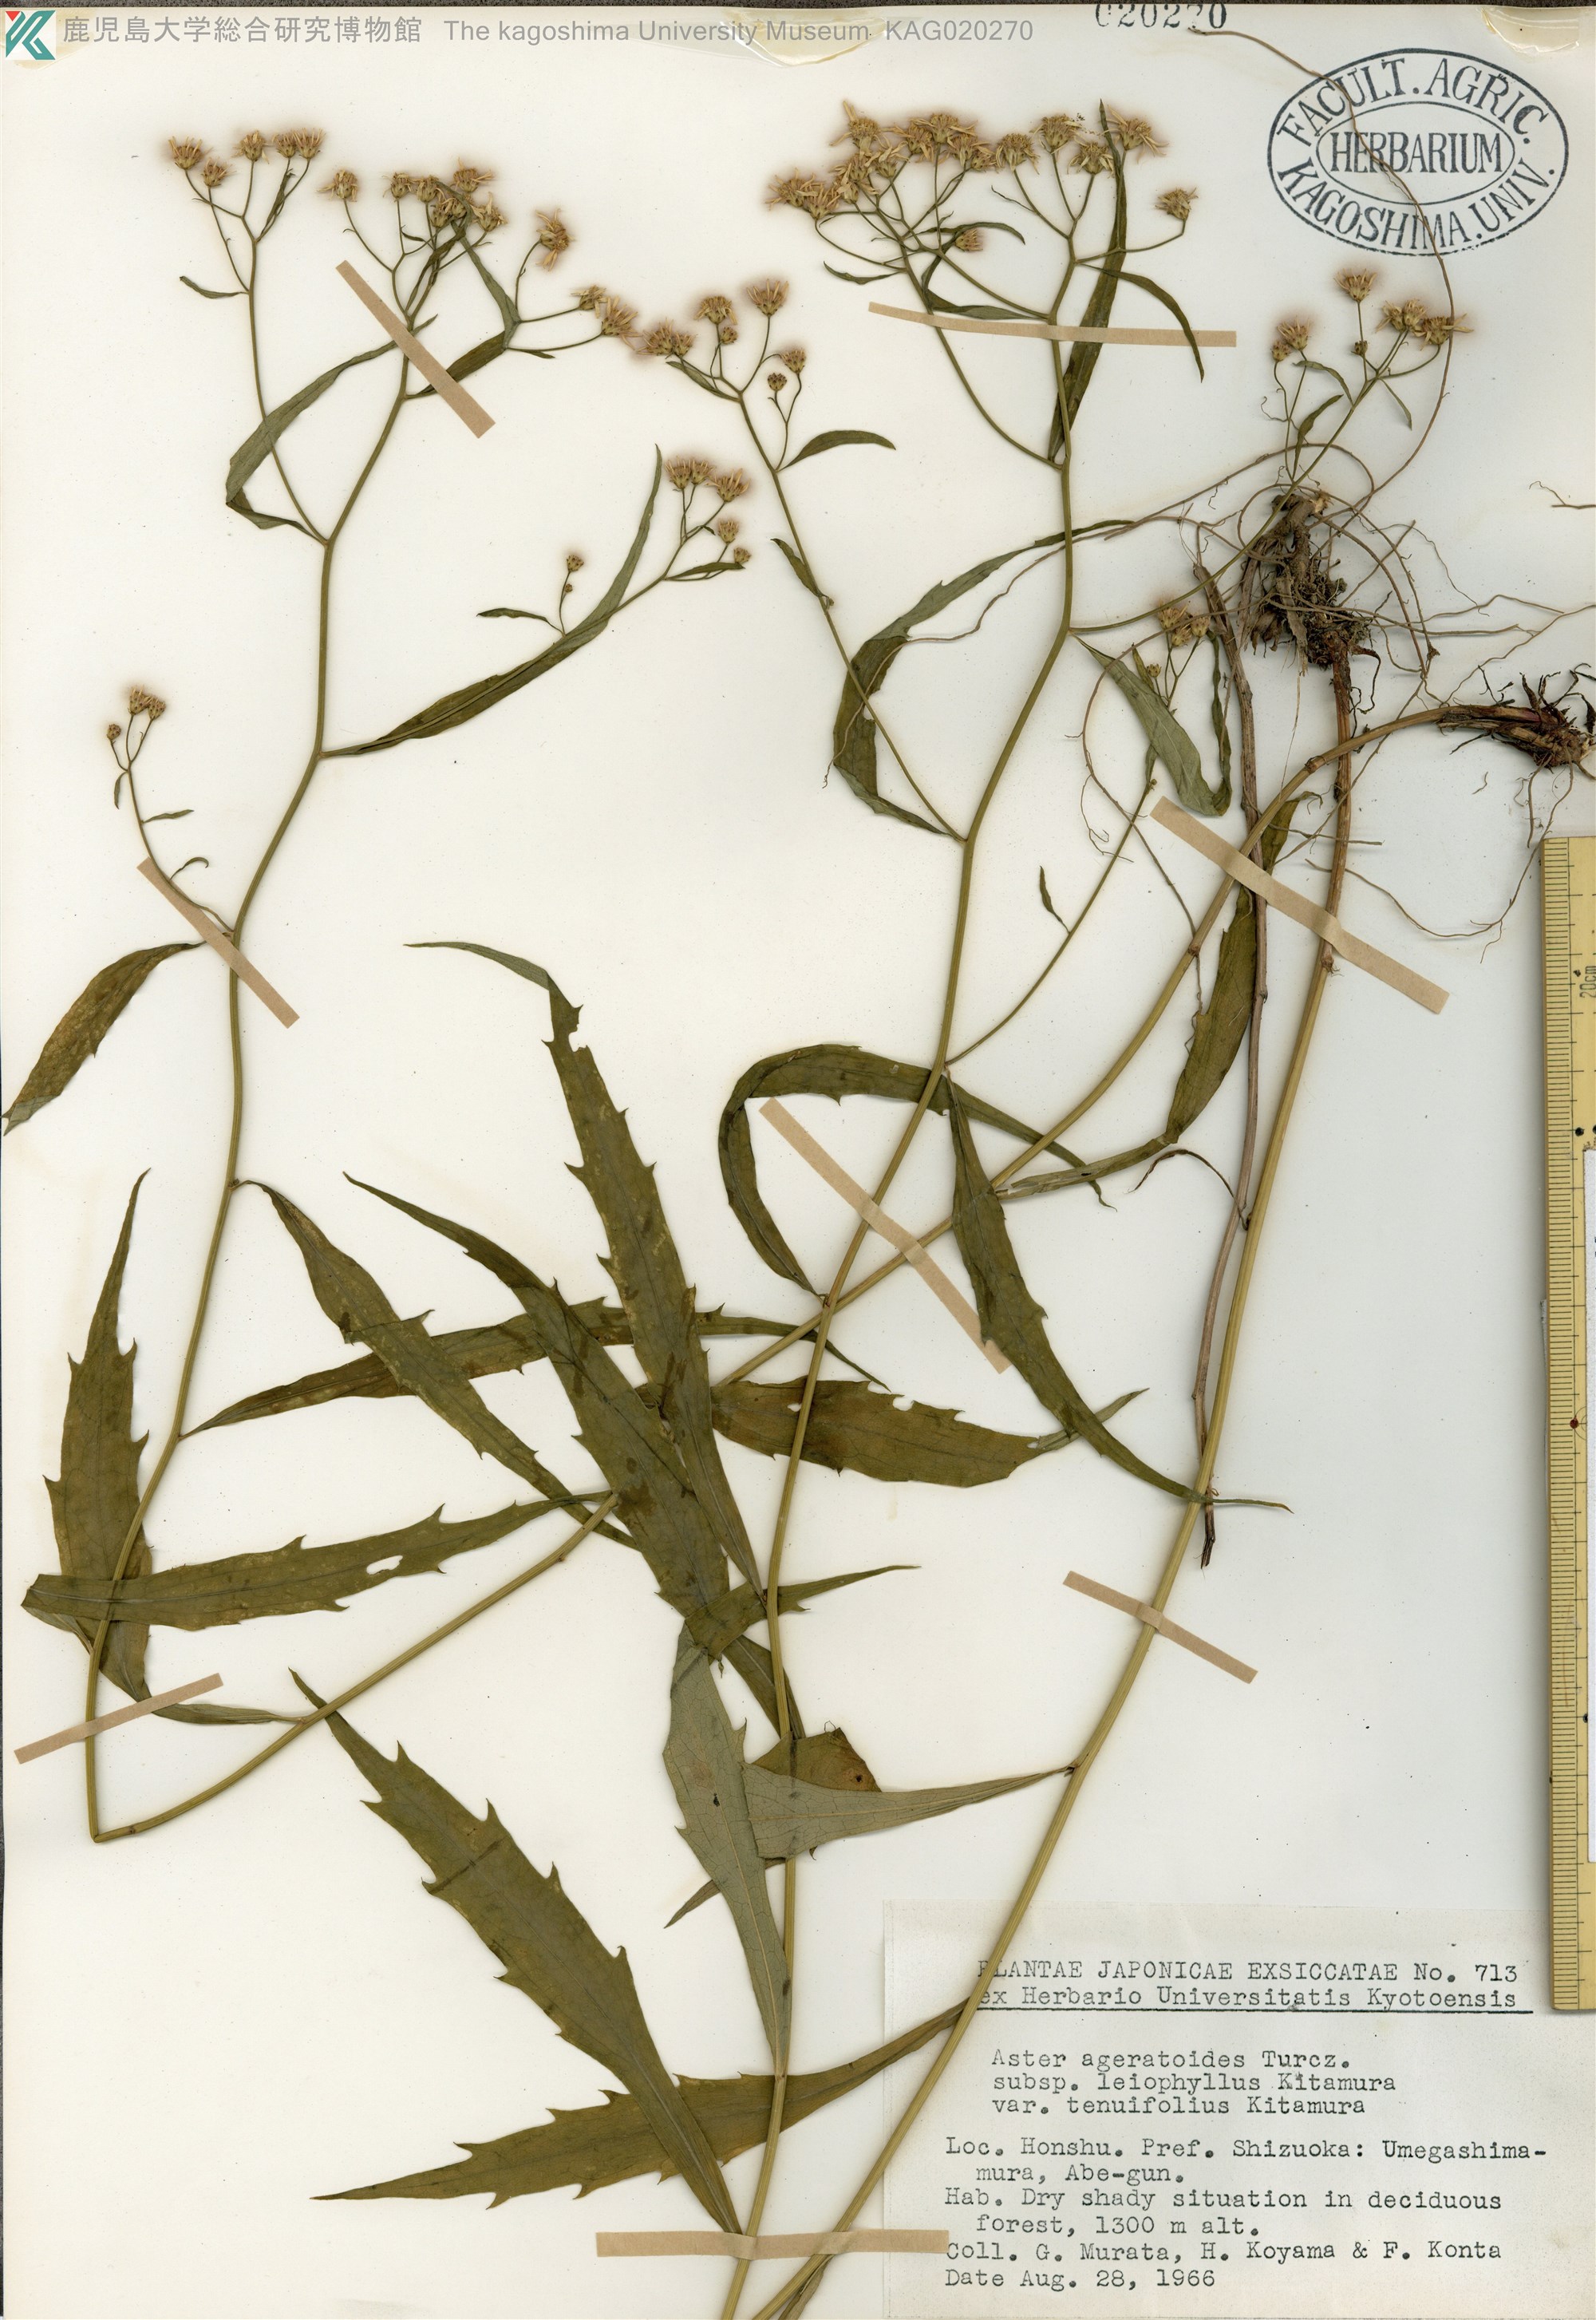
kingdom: Plantae
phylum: Tracheophyta
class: Magnoliopsida
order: Asterales
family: Asteraceae
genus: Aster
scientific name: Aster ageratoides
